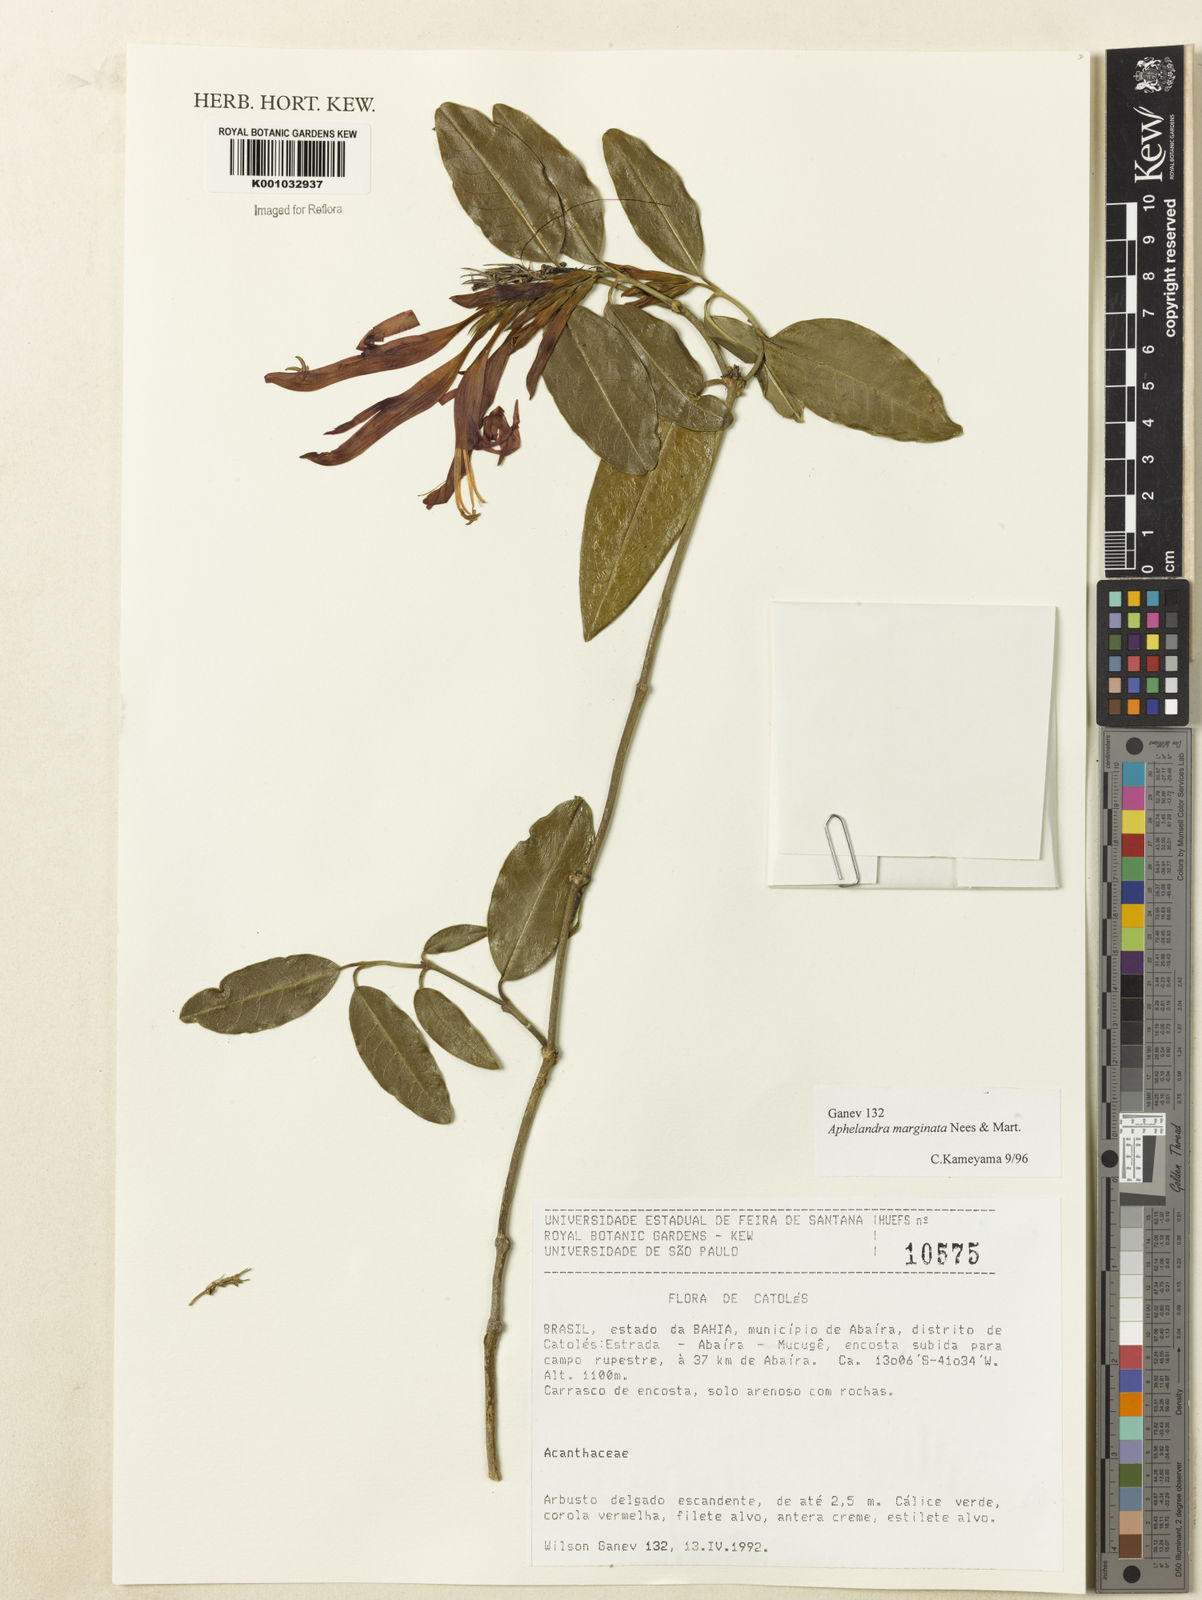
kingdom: Plantae
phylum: Tracheophyta
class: Magnoliopsida
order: Lamiales
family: Acanthaceae
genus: Aphelandra
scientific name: Aphelandra marginata
